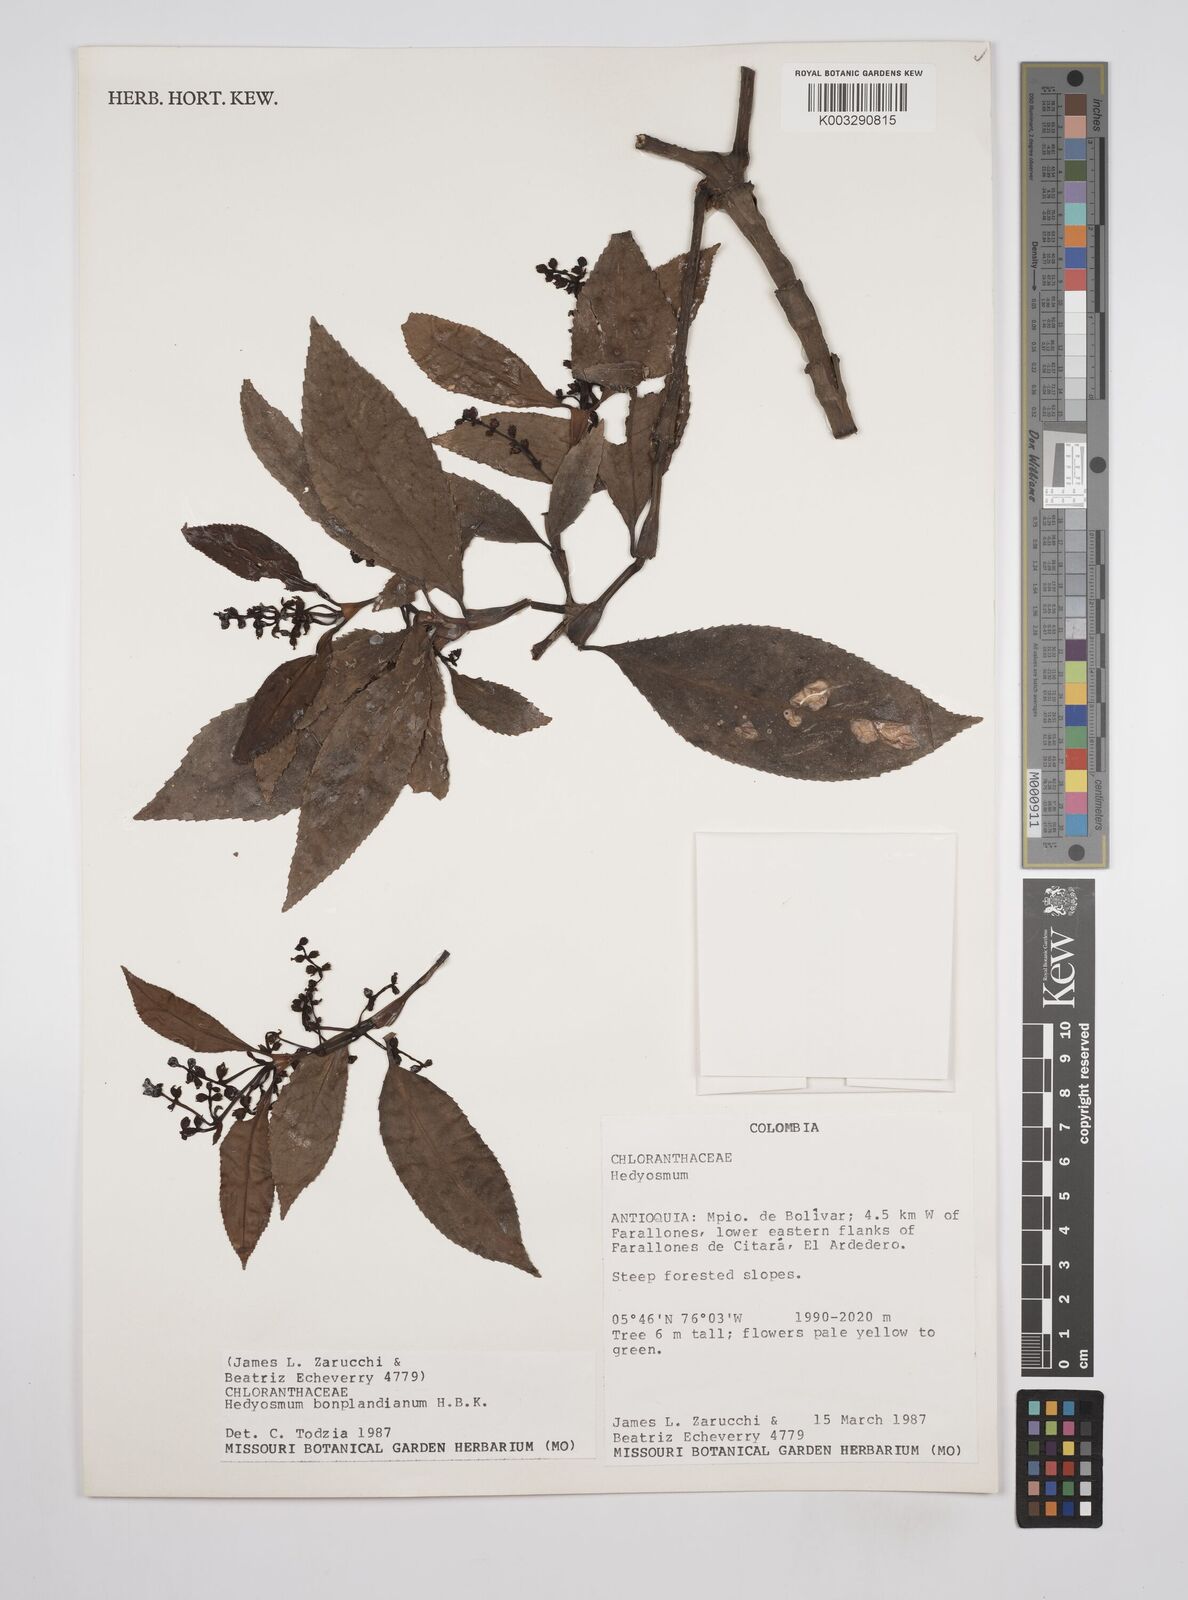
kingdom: Plantae
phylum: Tracheophyta
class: Magnoliopsida
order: Chloranthales
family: Chloranthaceae
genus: Hedyosmum
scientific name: Hedyosmum
